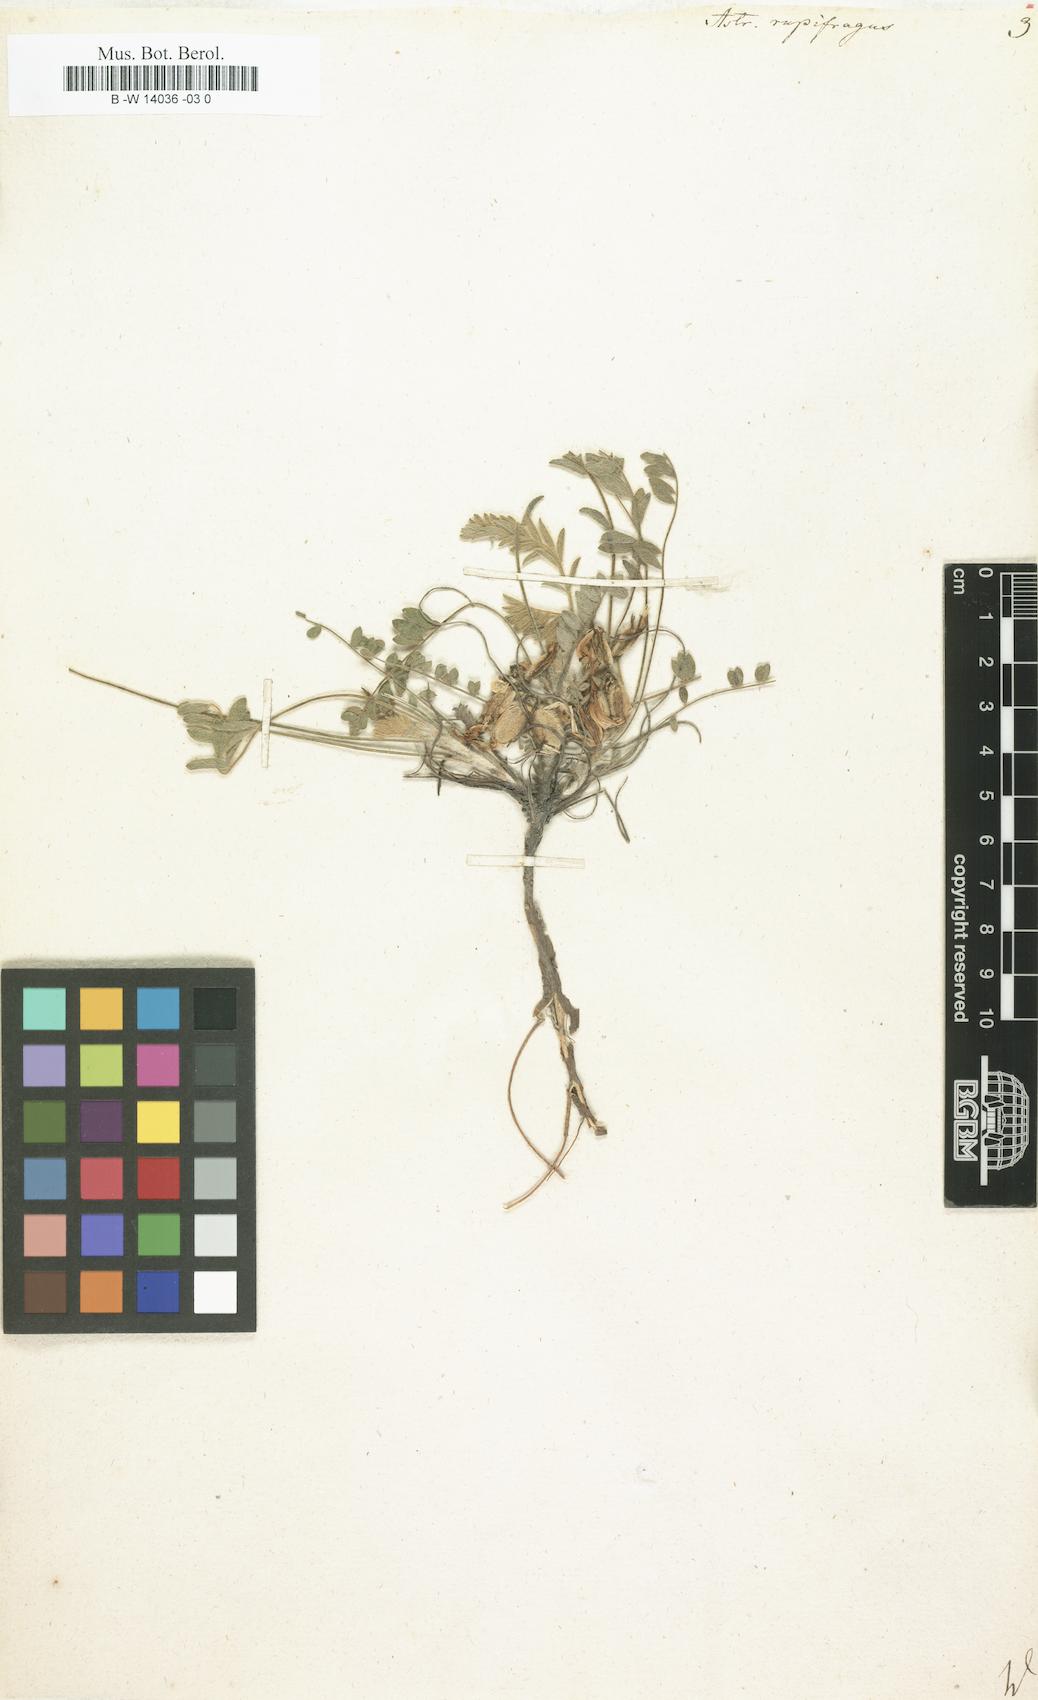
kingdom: Plantae
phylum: Tracheophyta
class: Magnoliopsida
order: Fabales
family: Fabaceae
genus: Astragalus
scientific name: Astragalus rupifragus
